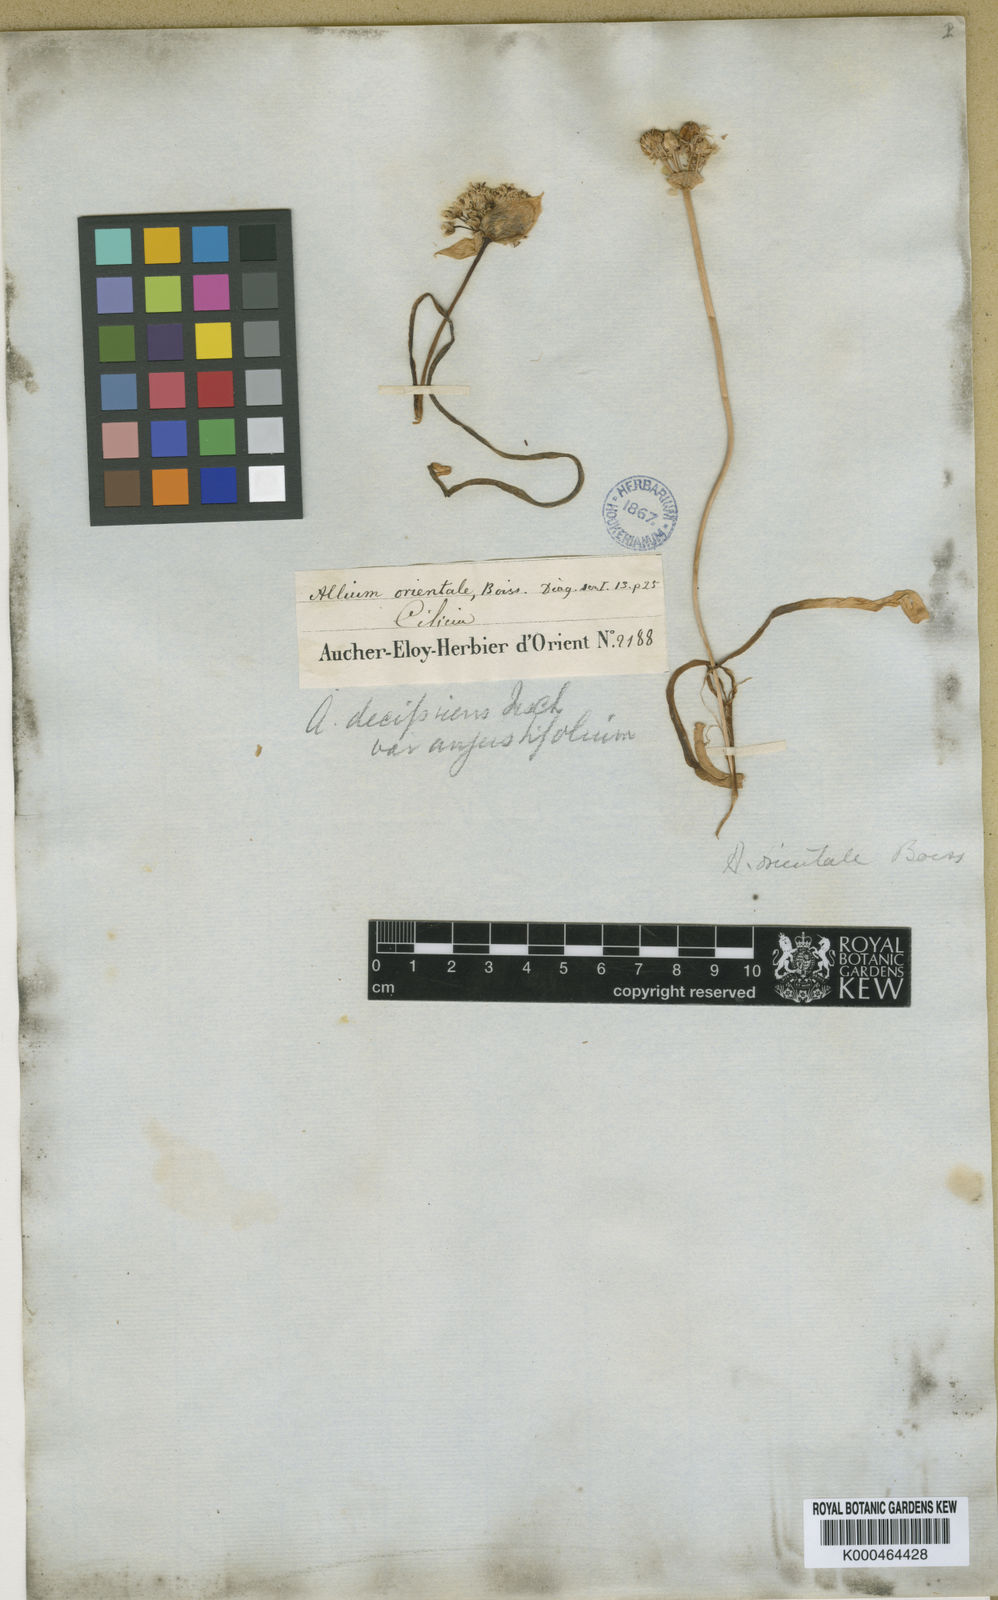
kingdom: Plantae
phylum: Tracheophyta
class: Liliopsida
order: Asparagales
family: Amaryllidaceae
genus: Allium
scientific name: Allium orientale
